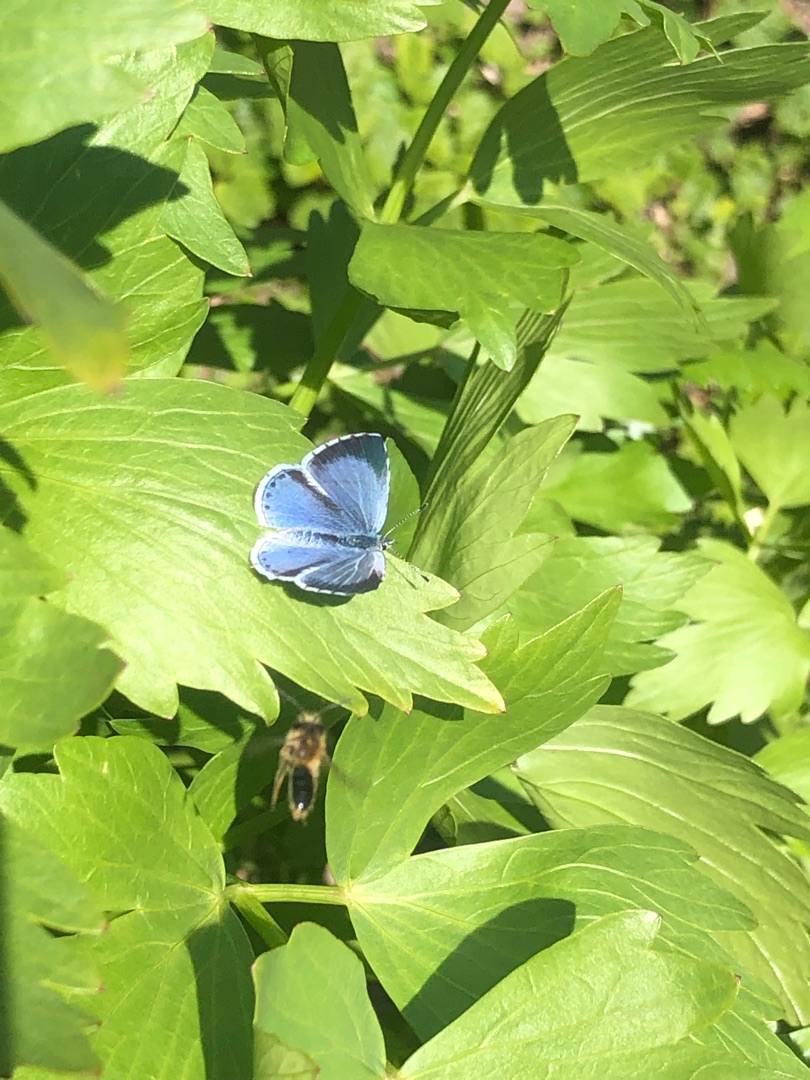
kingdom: Animalia
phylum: Arthropoda
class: Insecta
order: Lepidoptera
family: Lycaenidae
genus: Celastrina
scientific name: Celastrina argiolus
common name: Skovblåfugl
